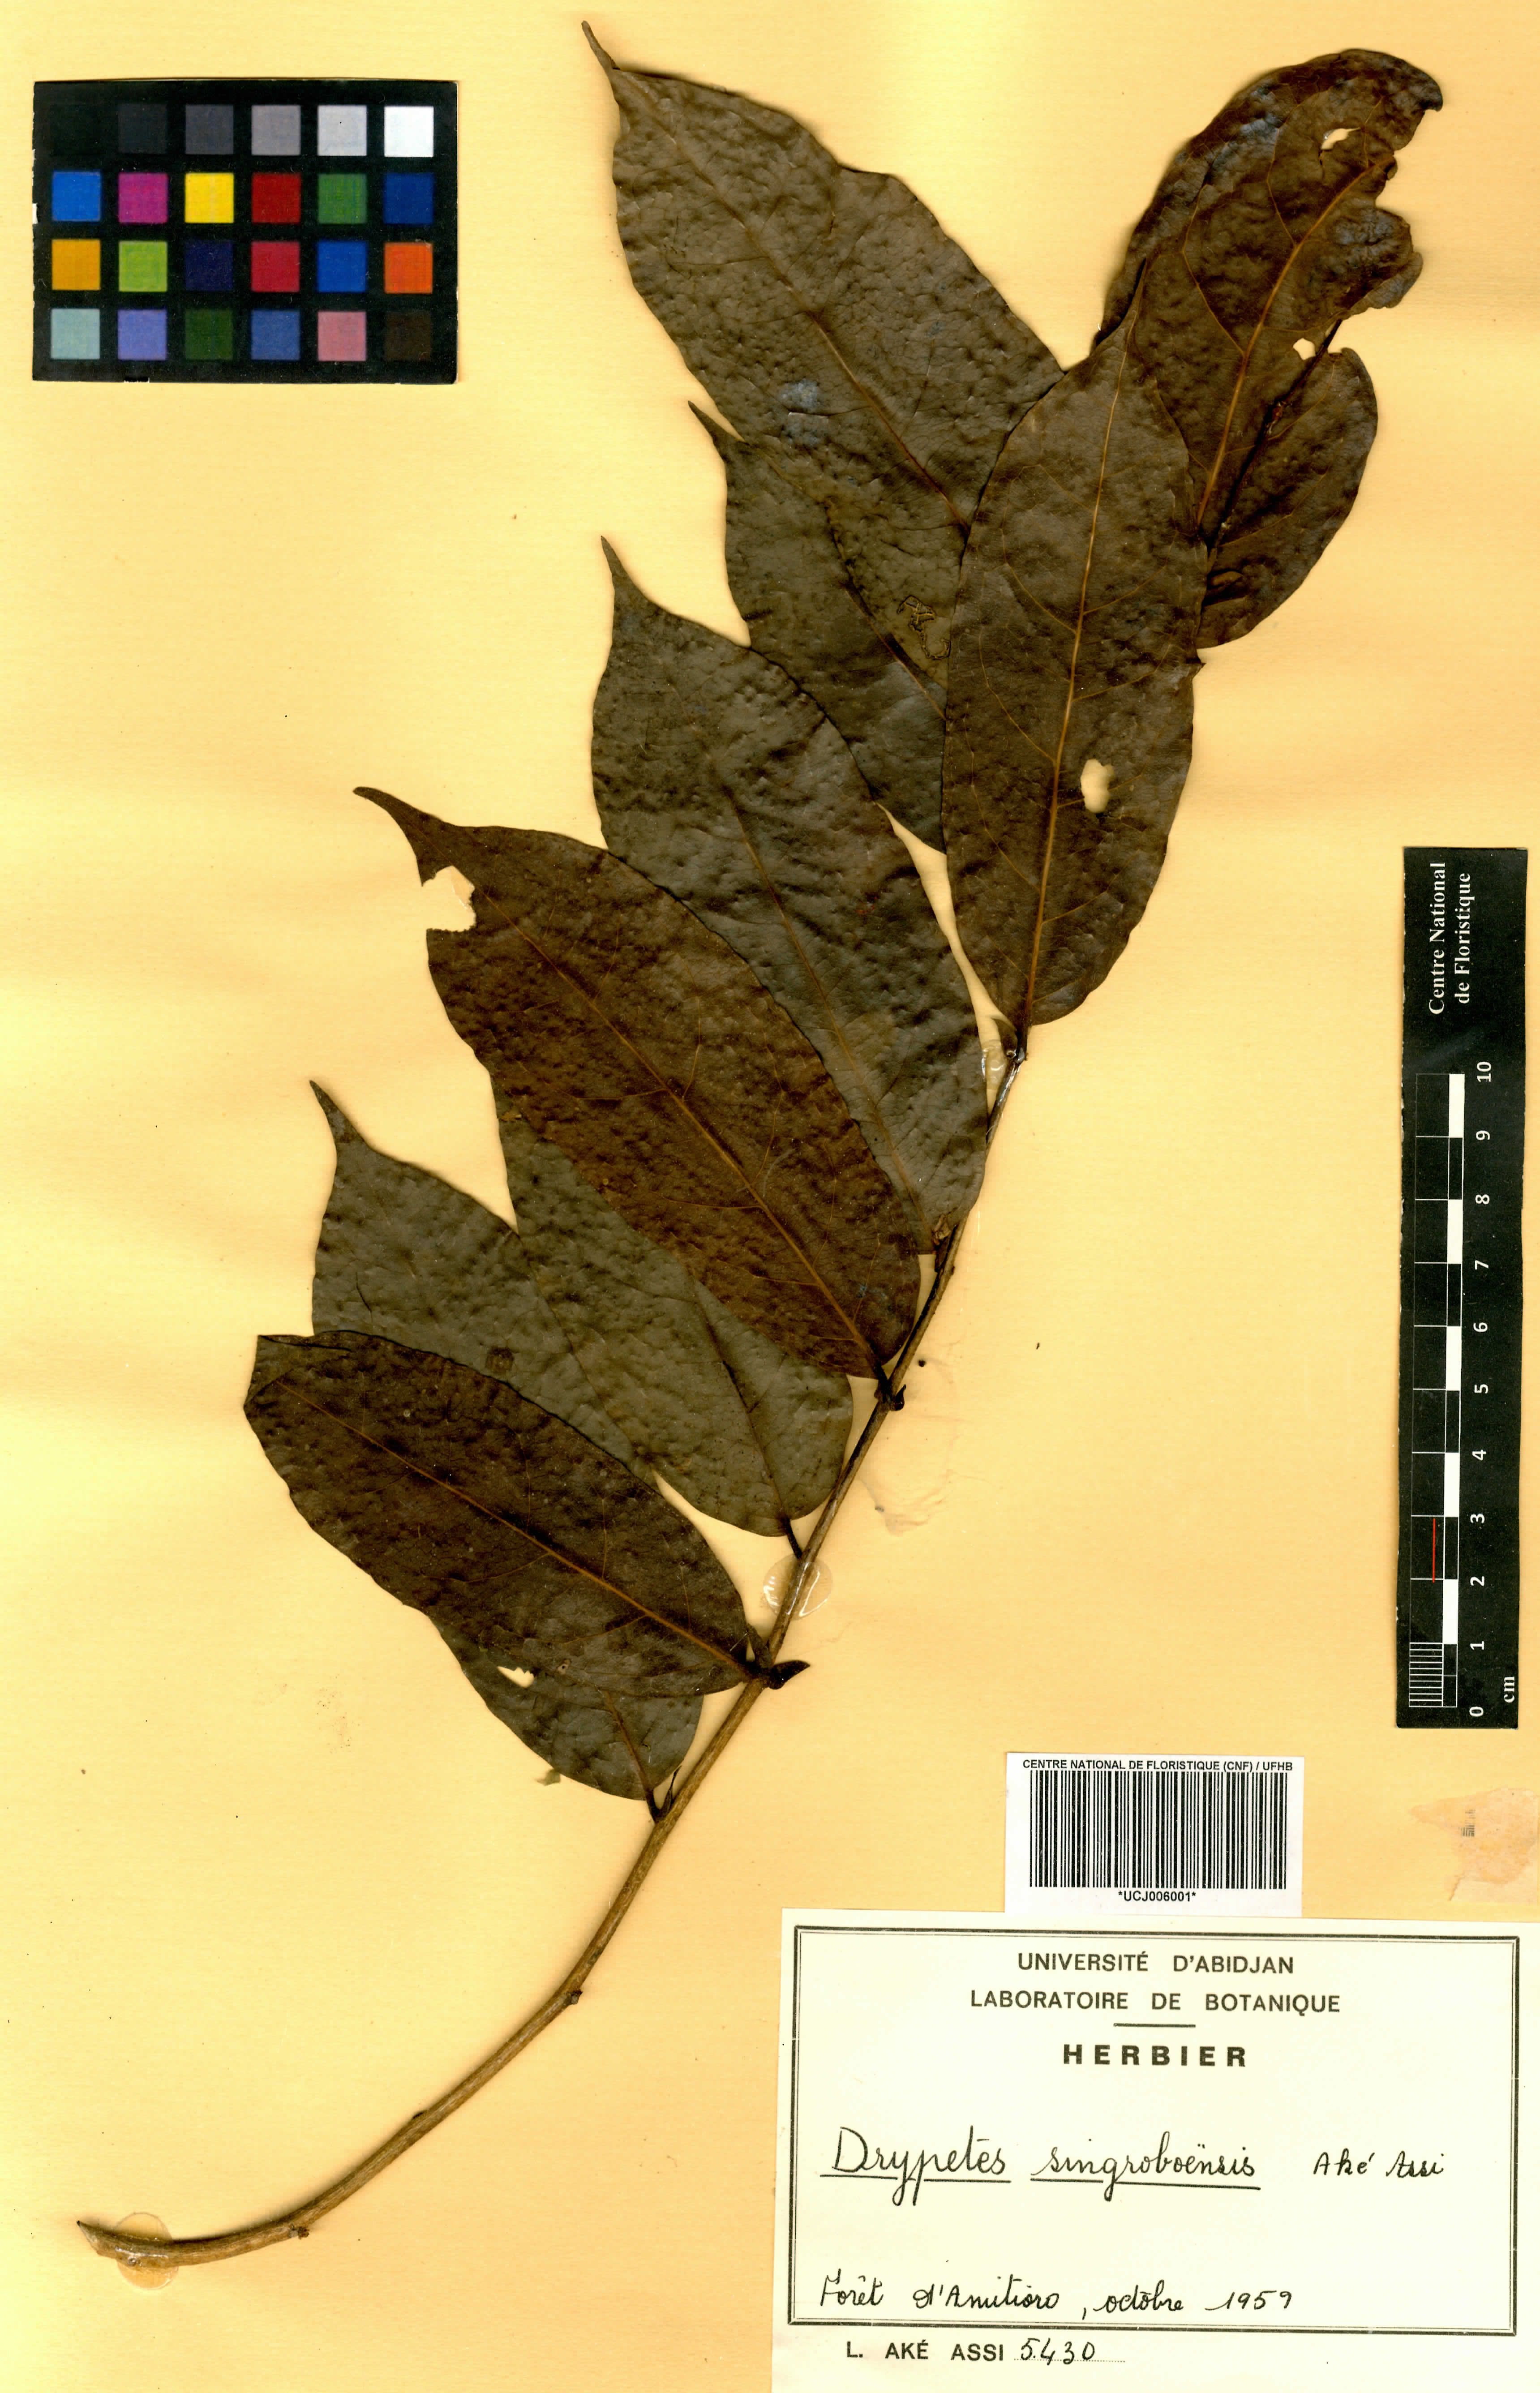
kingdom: Plantae
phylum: Tracheophyta
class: Magnoliopsida
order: Malpighiales
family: Putranjivaceae
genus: Drypetes
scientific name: Drypetes singroboensis
